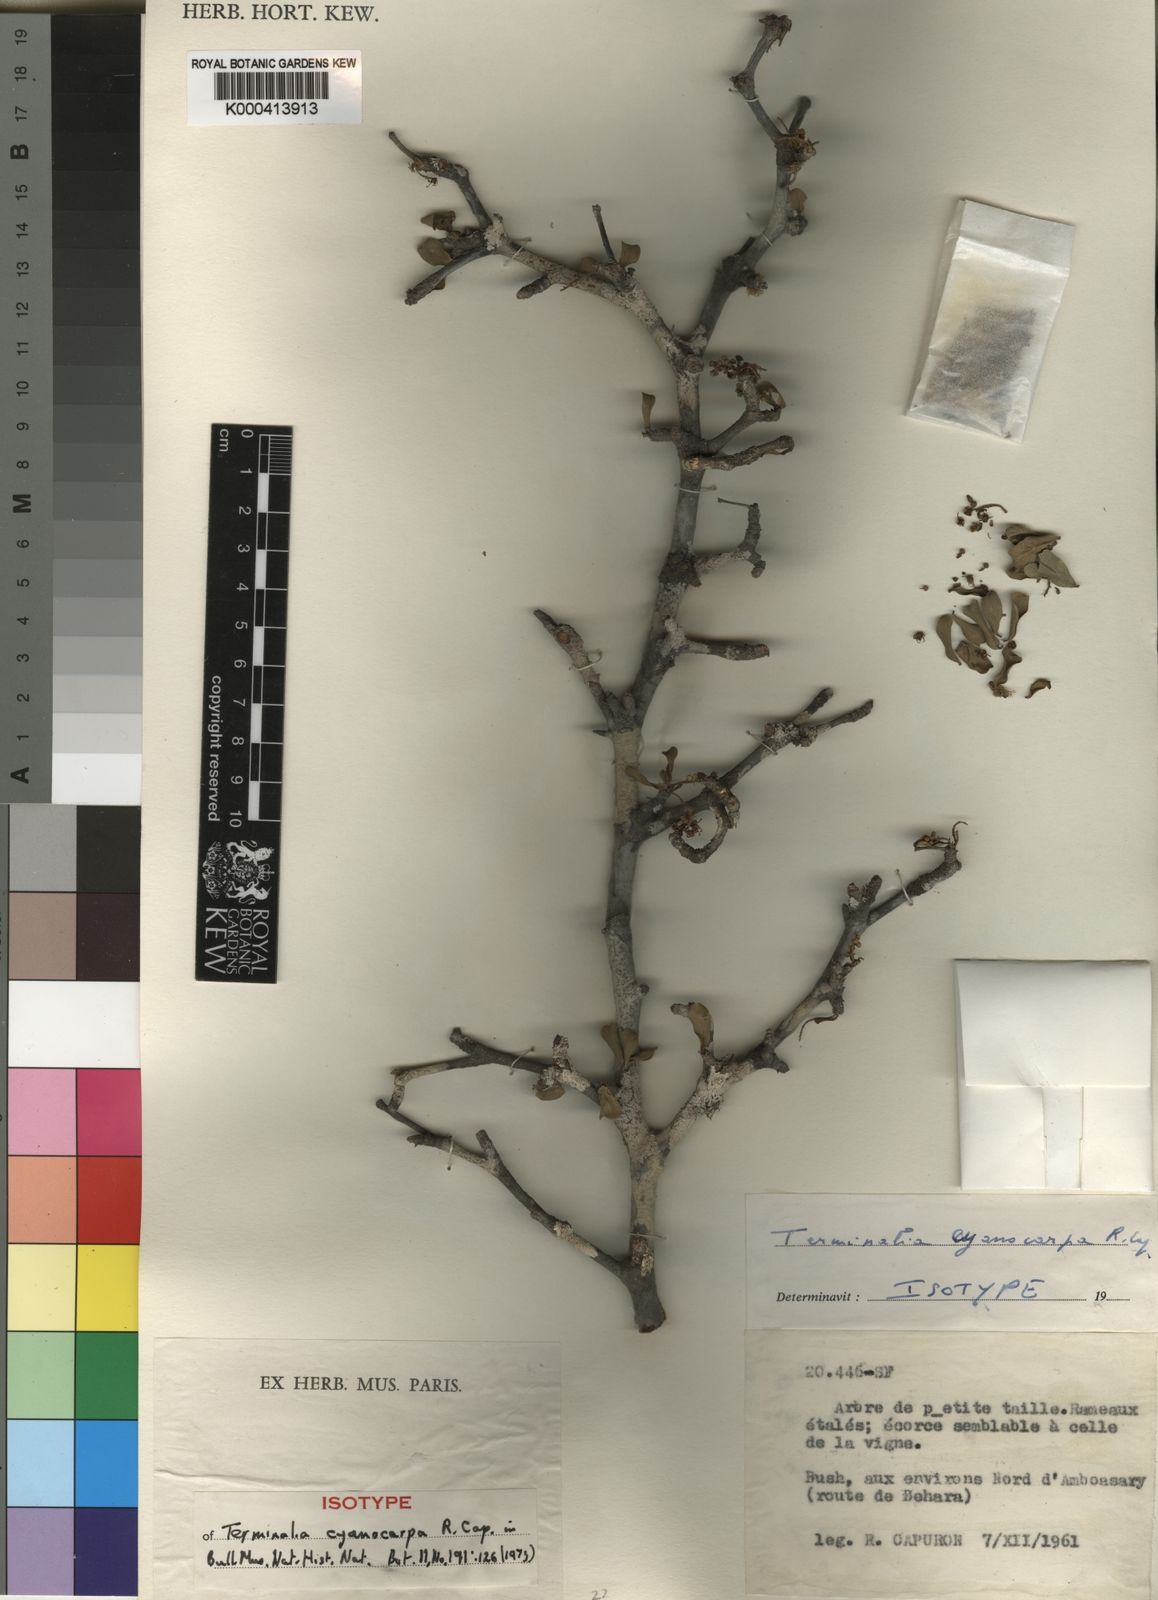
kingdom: Plantae
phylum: Tracheophyta
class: Magnoliopsida
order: Myrtales
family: Combretaceae
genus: Terminalia
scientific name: Terminalia cyanocarpa
